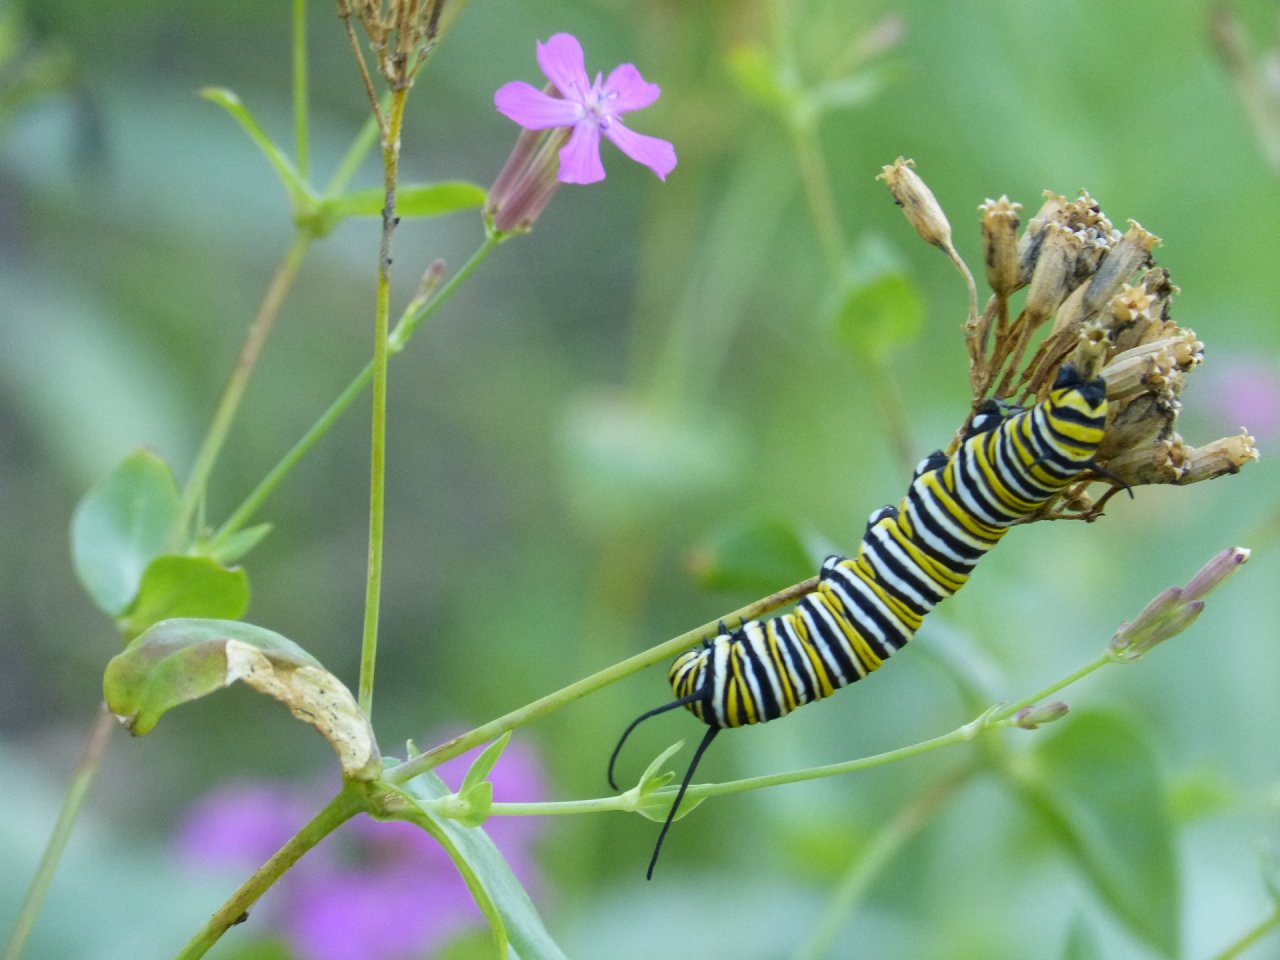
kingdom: Animalia
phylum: Arthropoda
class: Insecta
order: Lepidoptera
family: Nymphalidae
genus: Danaus
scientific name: Danaus plexippus
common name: Monarch
